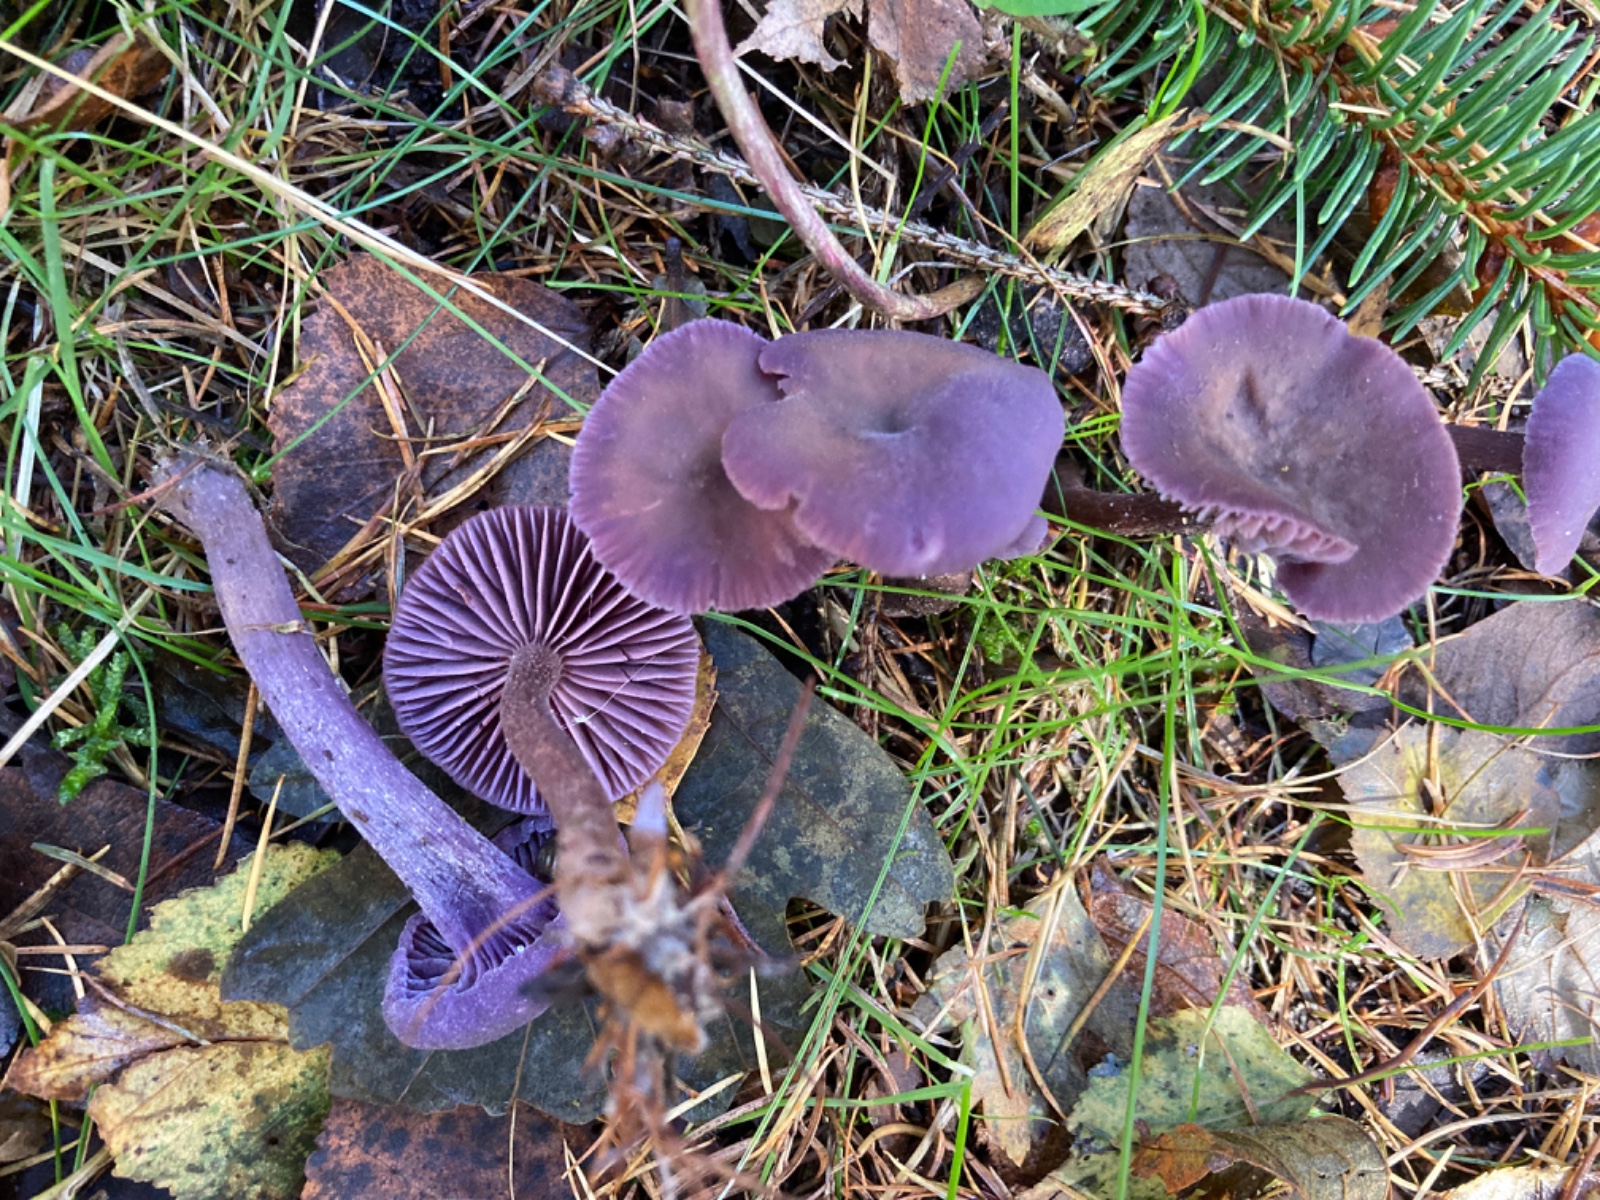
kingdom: Fungi
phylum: Basidiomycota
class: Agaricomycetes
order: Agaricales
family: Hydnangiaceae
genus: Laccaria
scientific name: Laccaria amethystina
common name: violet ametysthat
